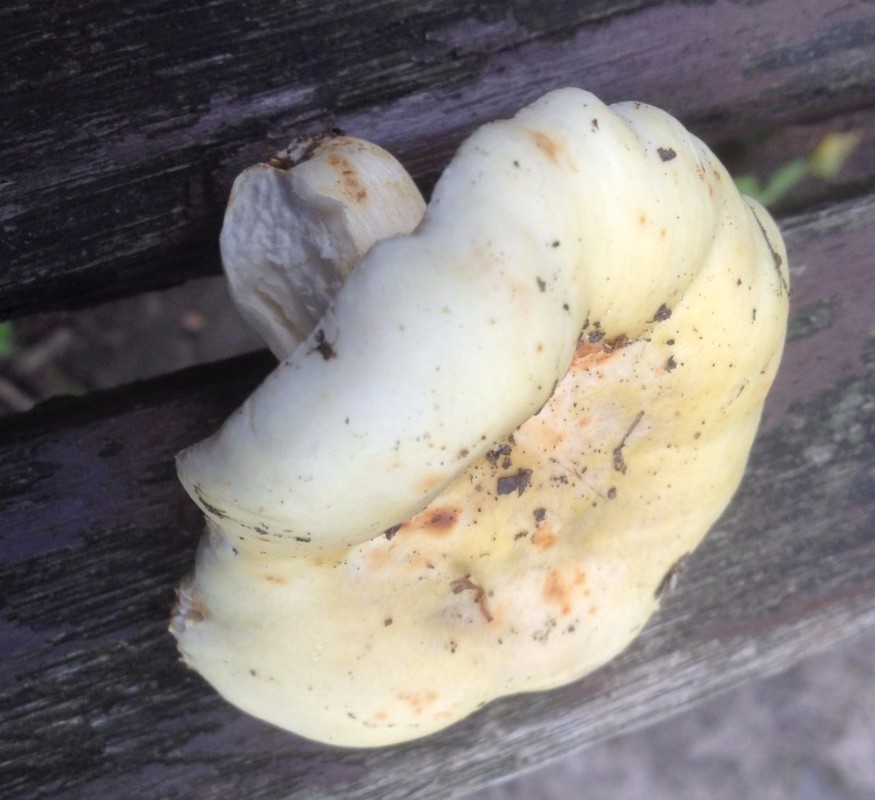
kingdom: Fungi
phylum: Basidiomycota
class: Agaricomycetes
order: Russulales
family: Russulaceae
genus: Russula
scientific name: Russula
